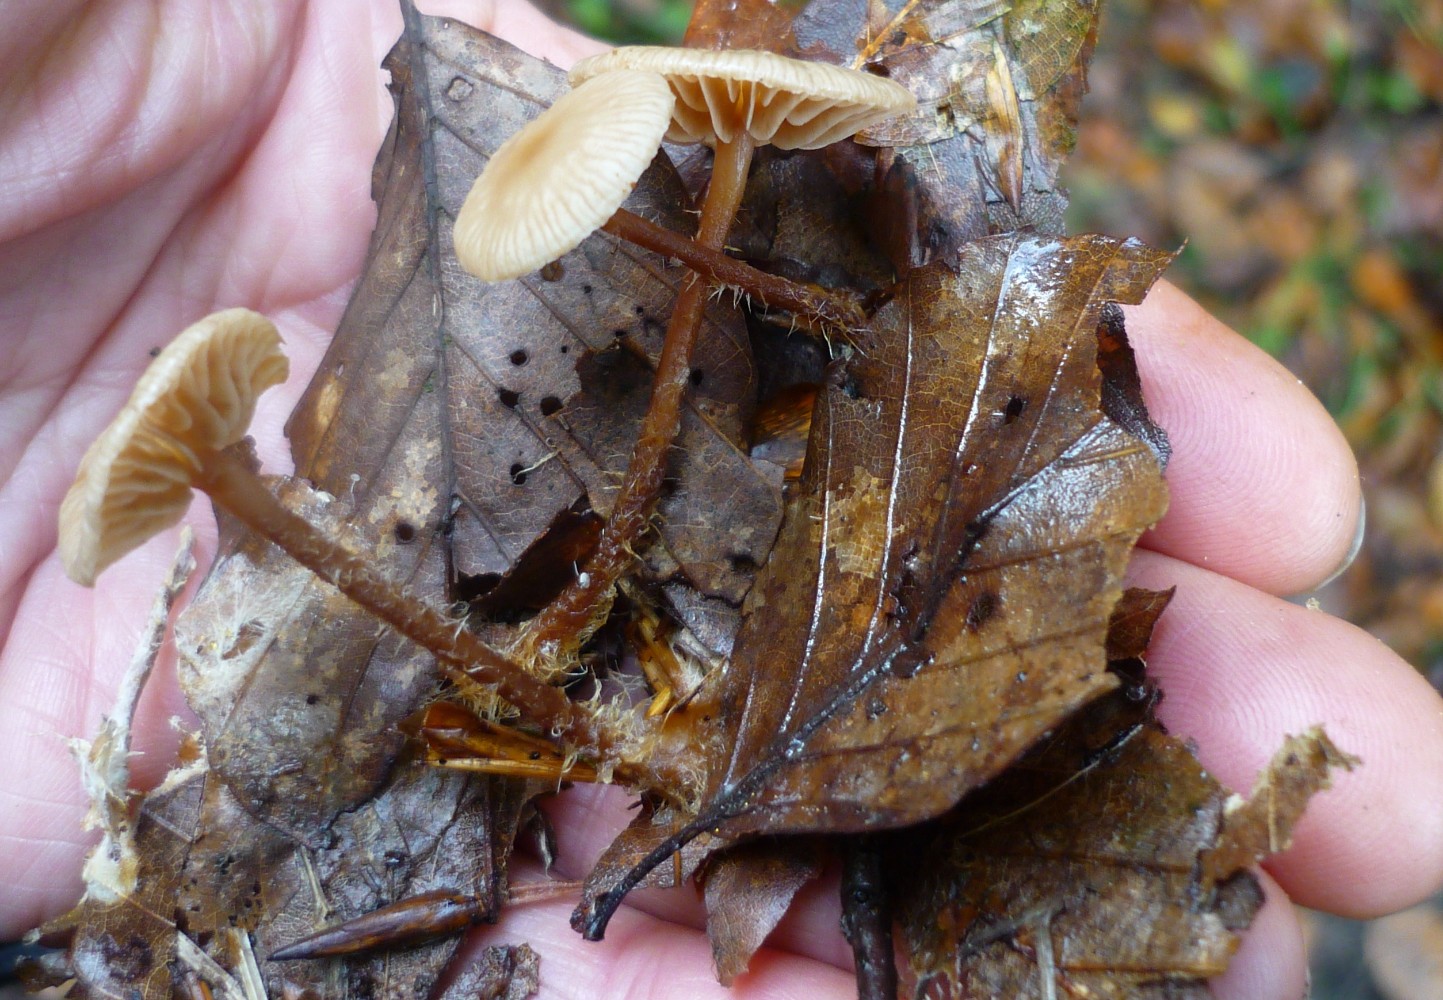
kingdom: Fungi
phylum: Basidiomycota
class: Agaricomycetes
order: Agaricales
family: Marasmiaceae
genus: Marasmius
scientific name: Marasmius torquescens
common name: filtfodet bruskhat
